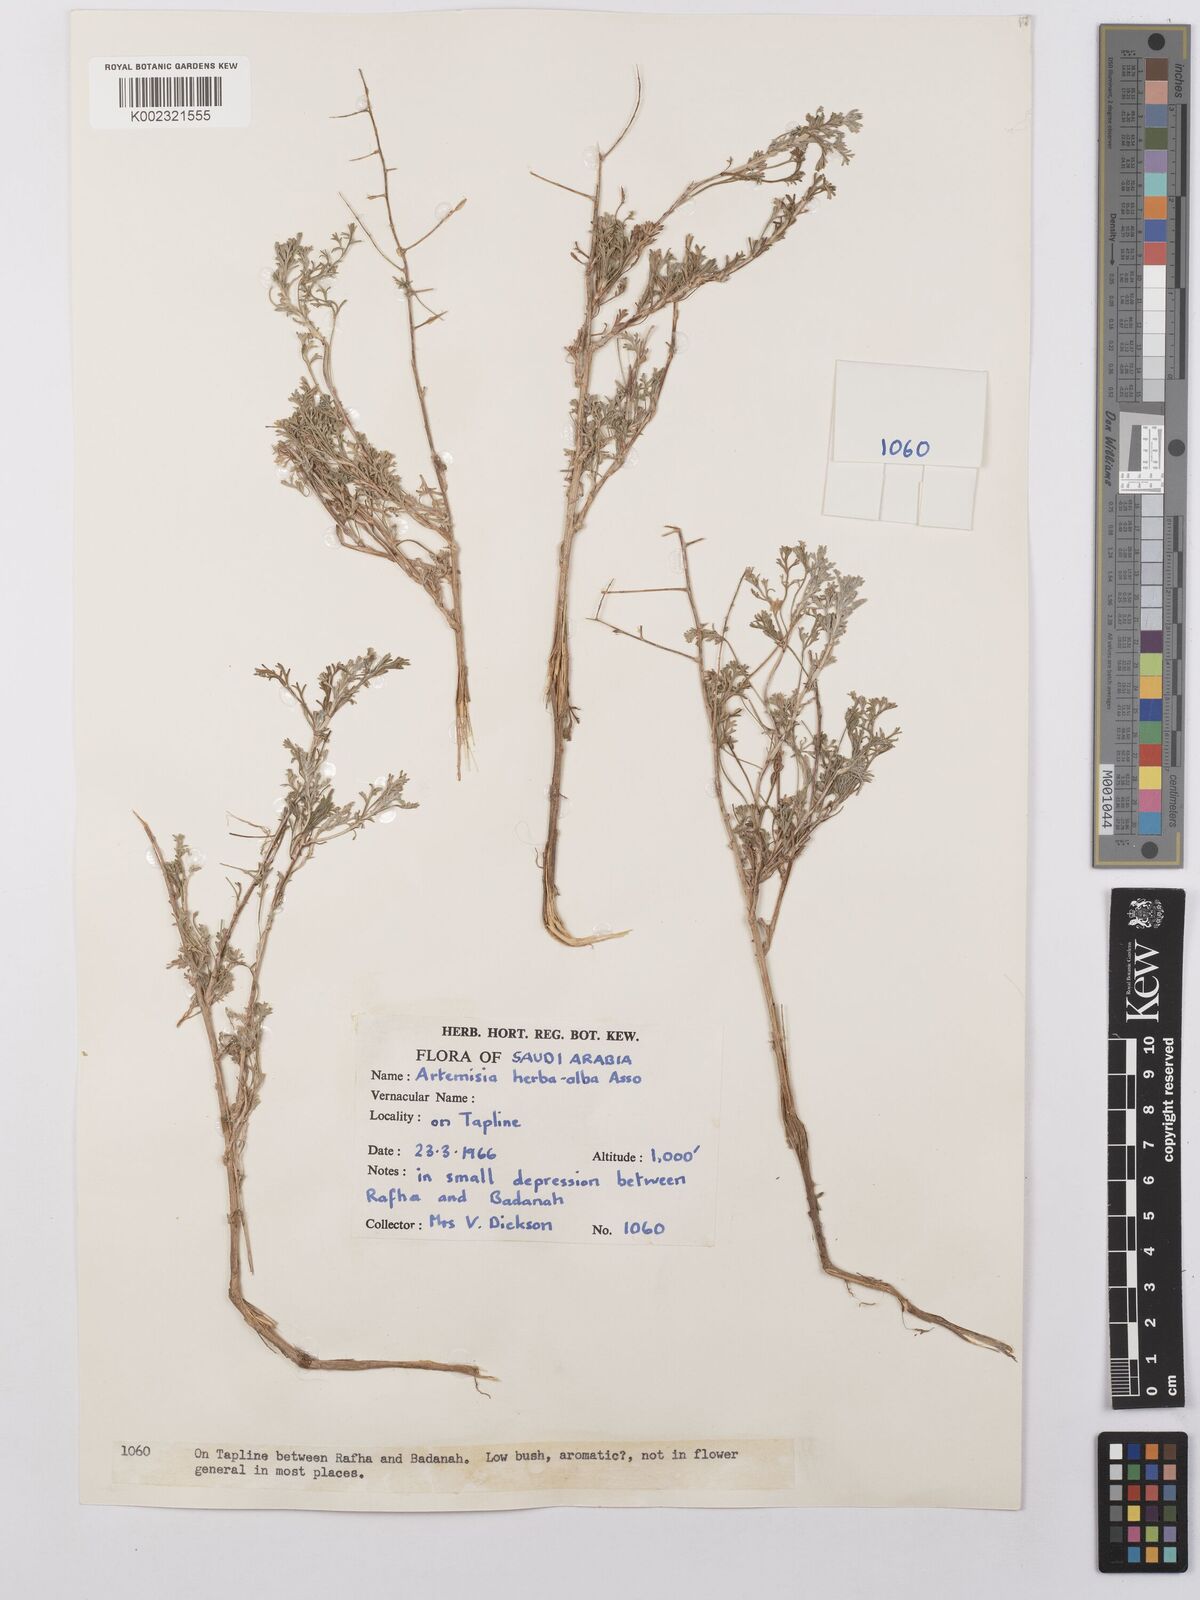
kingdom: Plantae
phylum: Tracheophyta
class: Magnoliopsida
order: Asterales
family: Asteraceae
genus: Artemisia
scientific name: Artemisia sieberi
